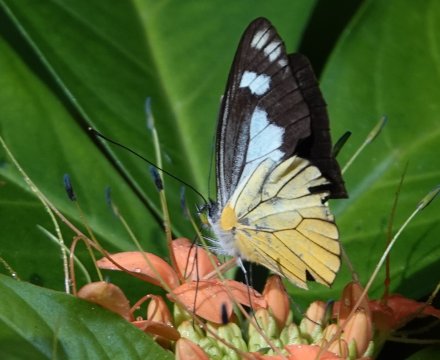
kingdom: Animalia
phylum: Arthropoda
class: Insecta
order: Lepidoptera
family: Pieridae
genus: Leptophobia
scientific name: Leptophobia caesia
